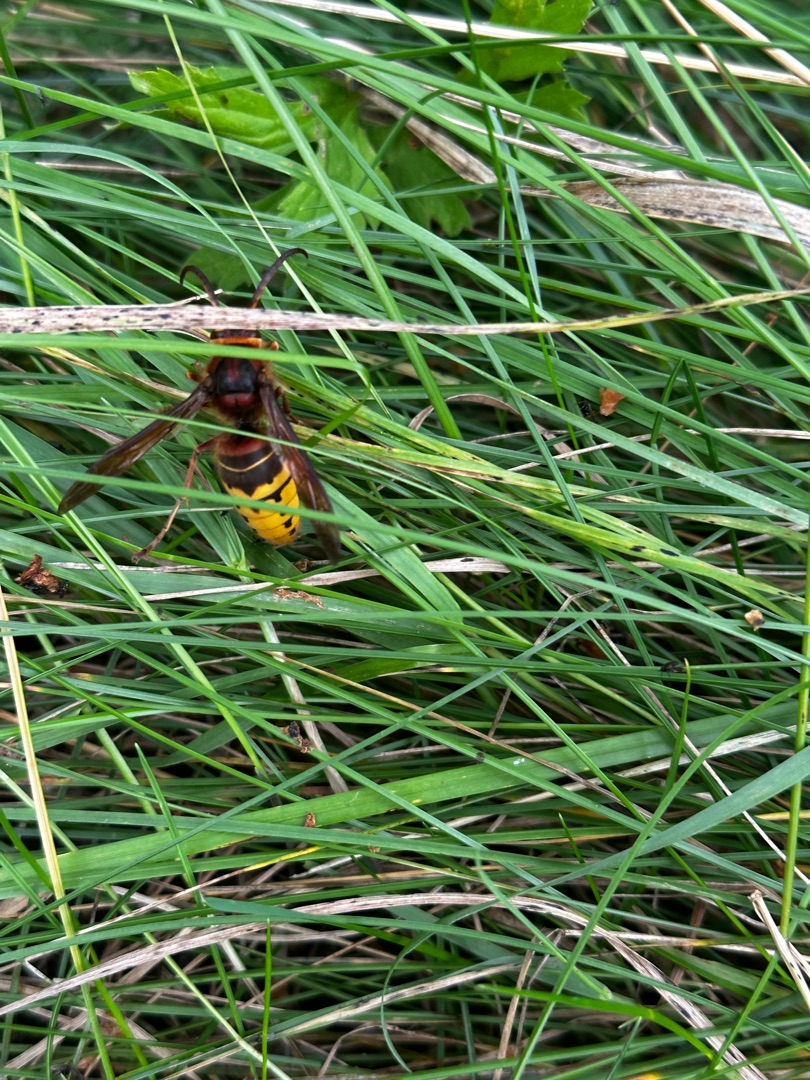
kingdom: Animalia
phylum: Arthropoda
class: Insecta
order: Hymenoptera
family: Vespidae
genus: Vespa
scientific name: Vespa crabro
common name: Stor gedehams
